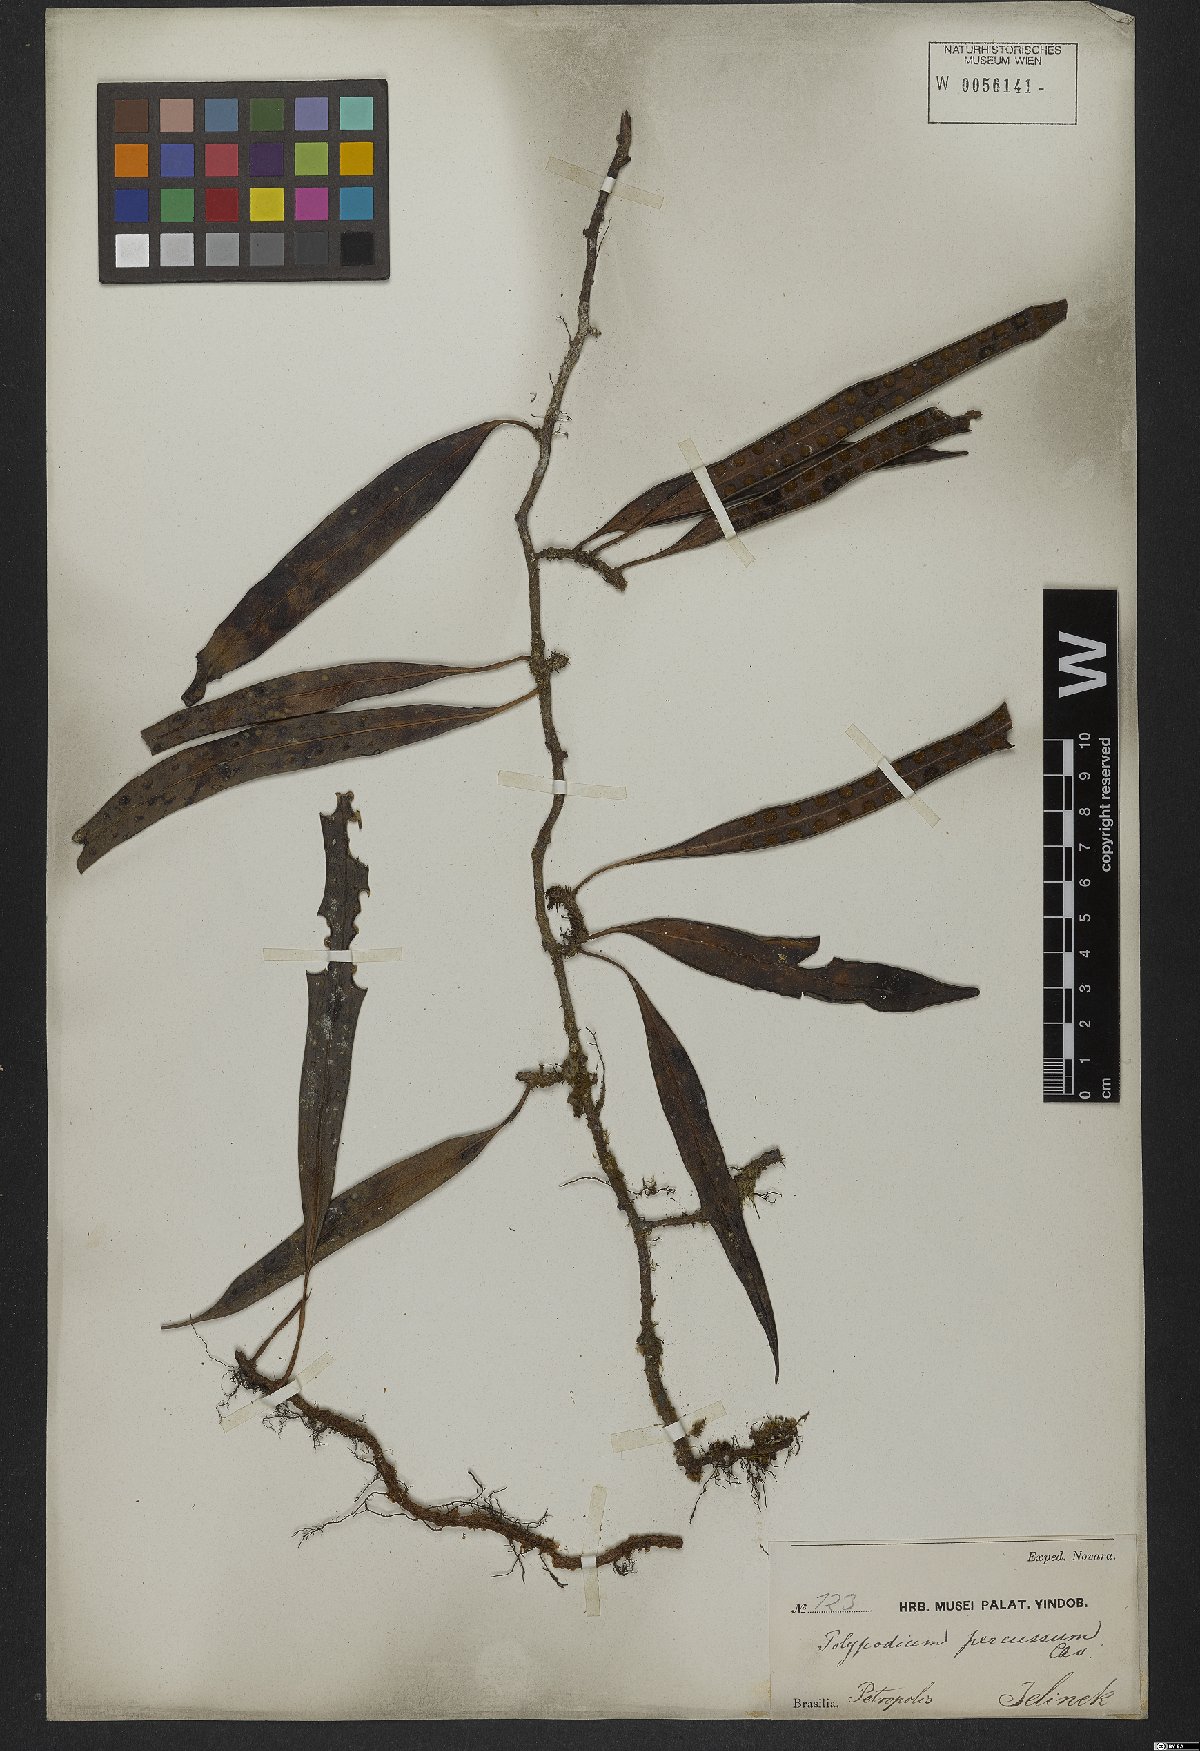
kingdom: Plantae
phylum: Tracheophyta
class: Polypodiopsida
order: Polypodiales
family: Polypodiaceae
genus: Microgramma
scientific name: Microgramma percussa
